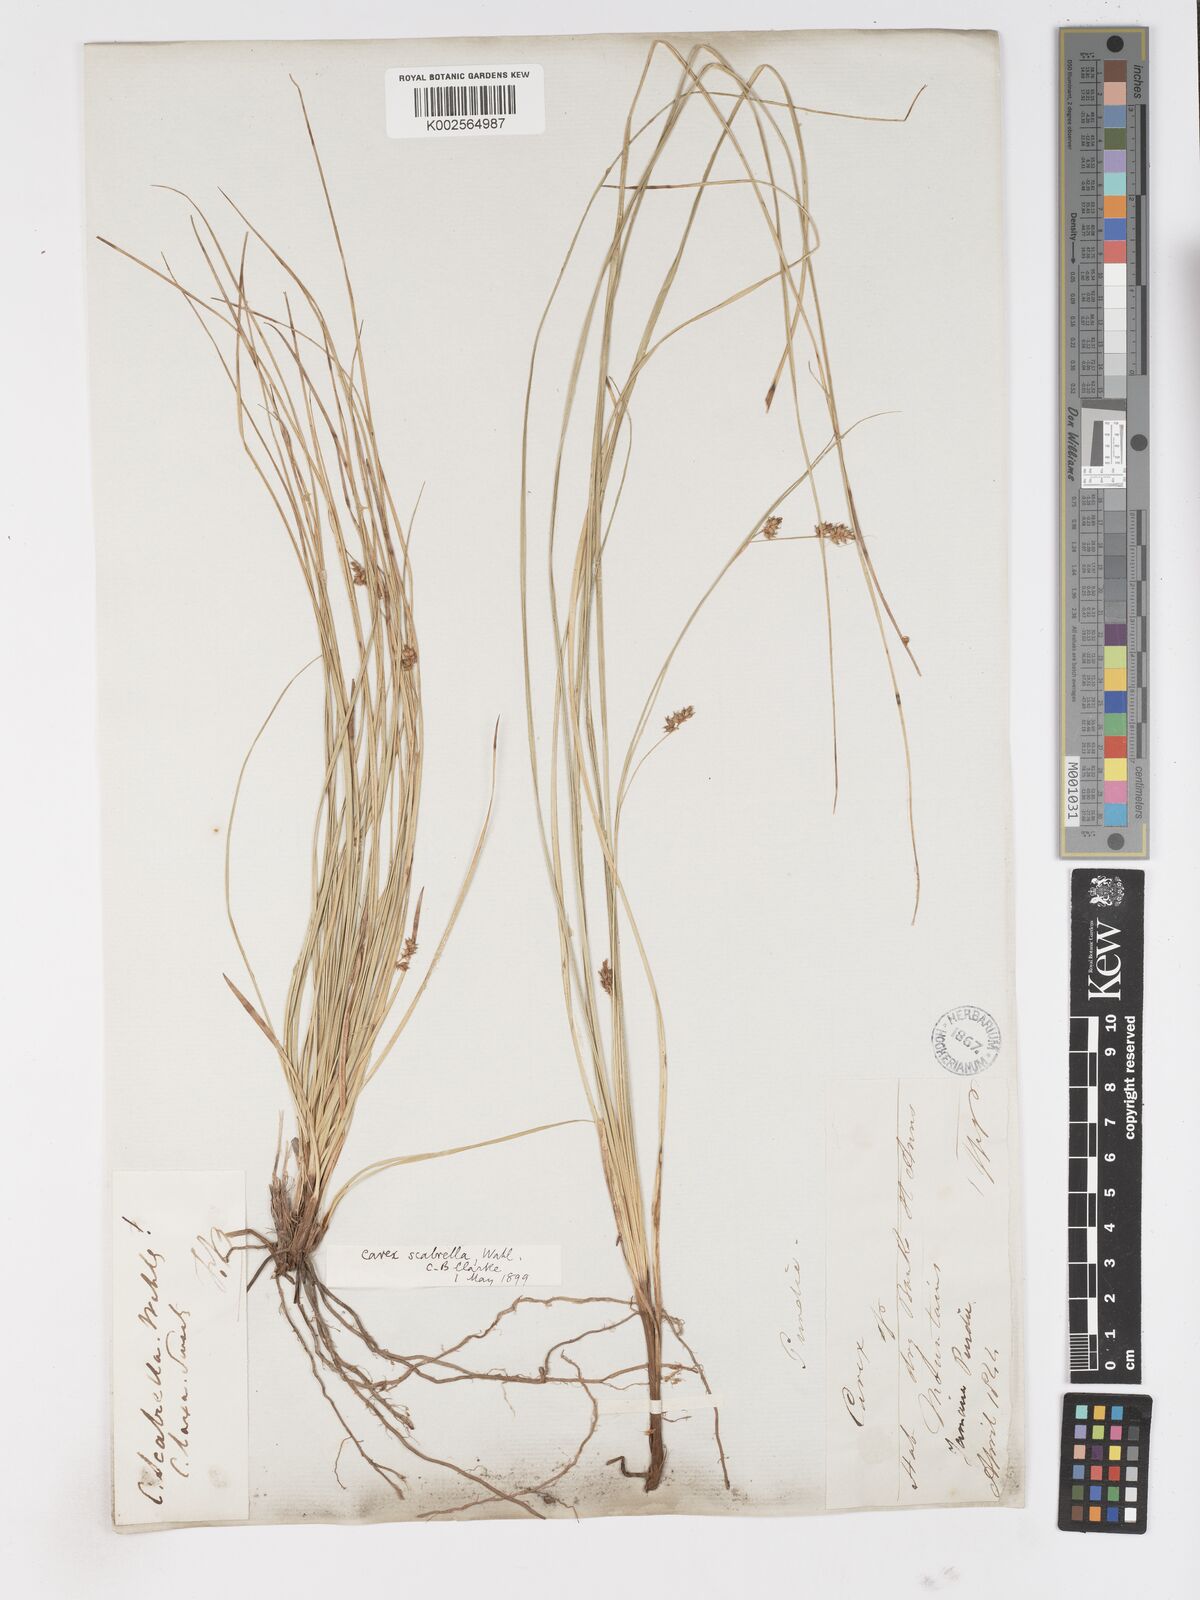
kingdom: Plantae
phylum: Tracheophyta
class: Liliopsida
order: Poales
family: Cyperaceae
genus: Carex
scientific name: Carex
